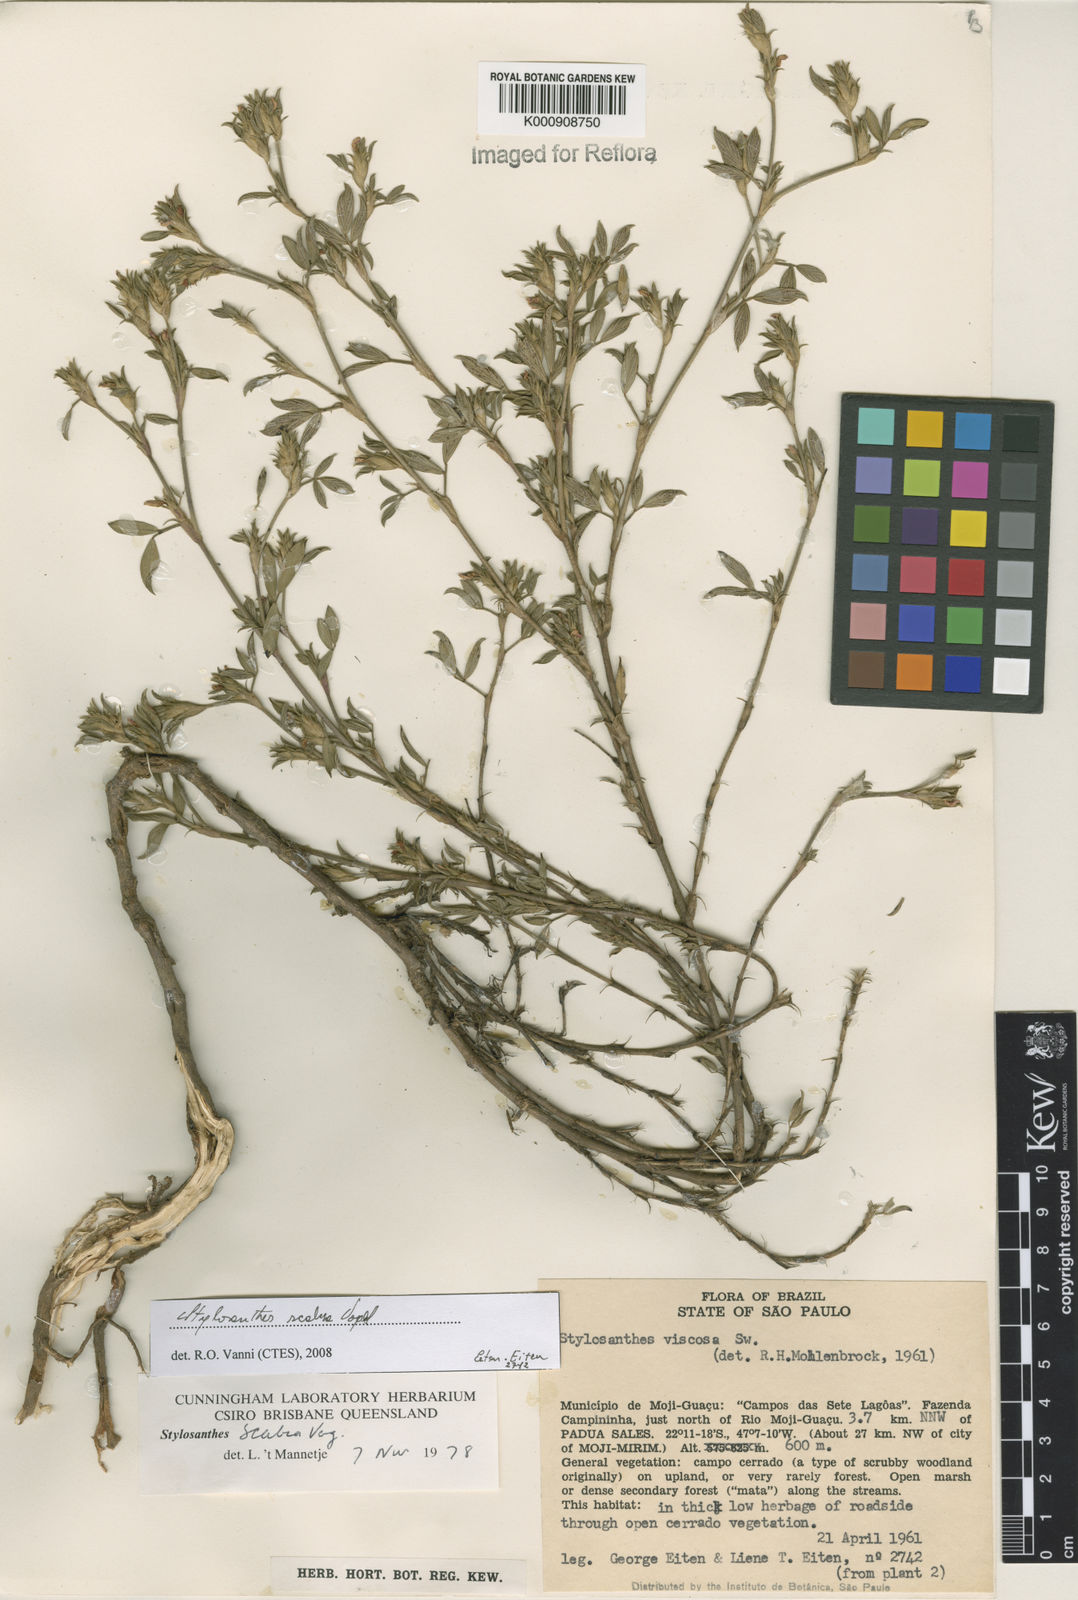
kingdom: Plantae
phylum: Tracheophyta
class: Magnoliopsida
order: Fabales
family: Fabaceae
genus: Stylosanthes
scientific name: Stylosanthes scabra
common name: Pencilflower
